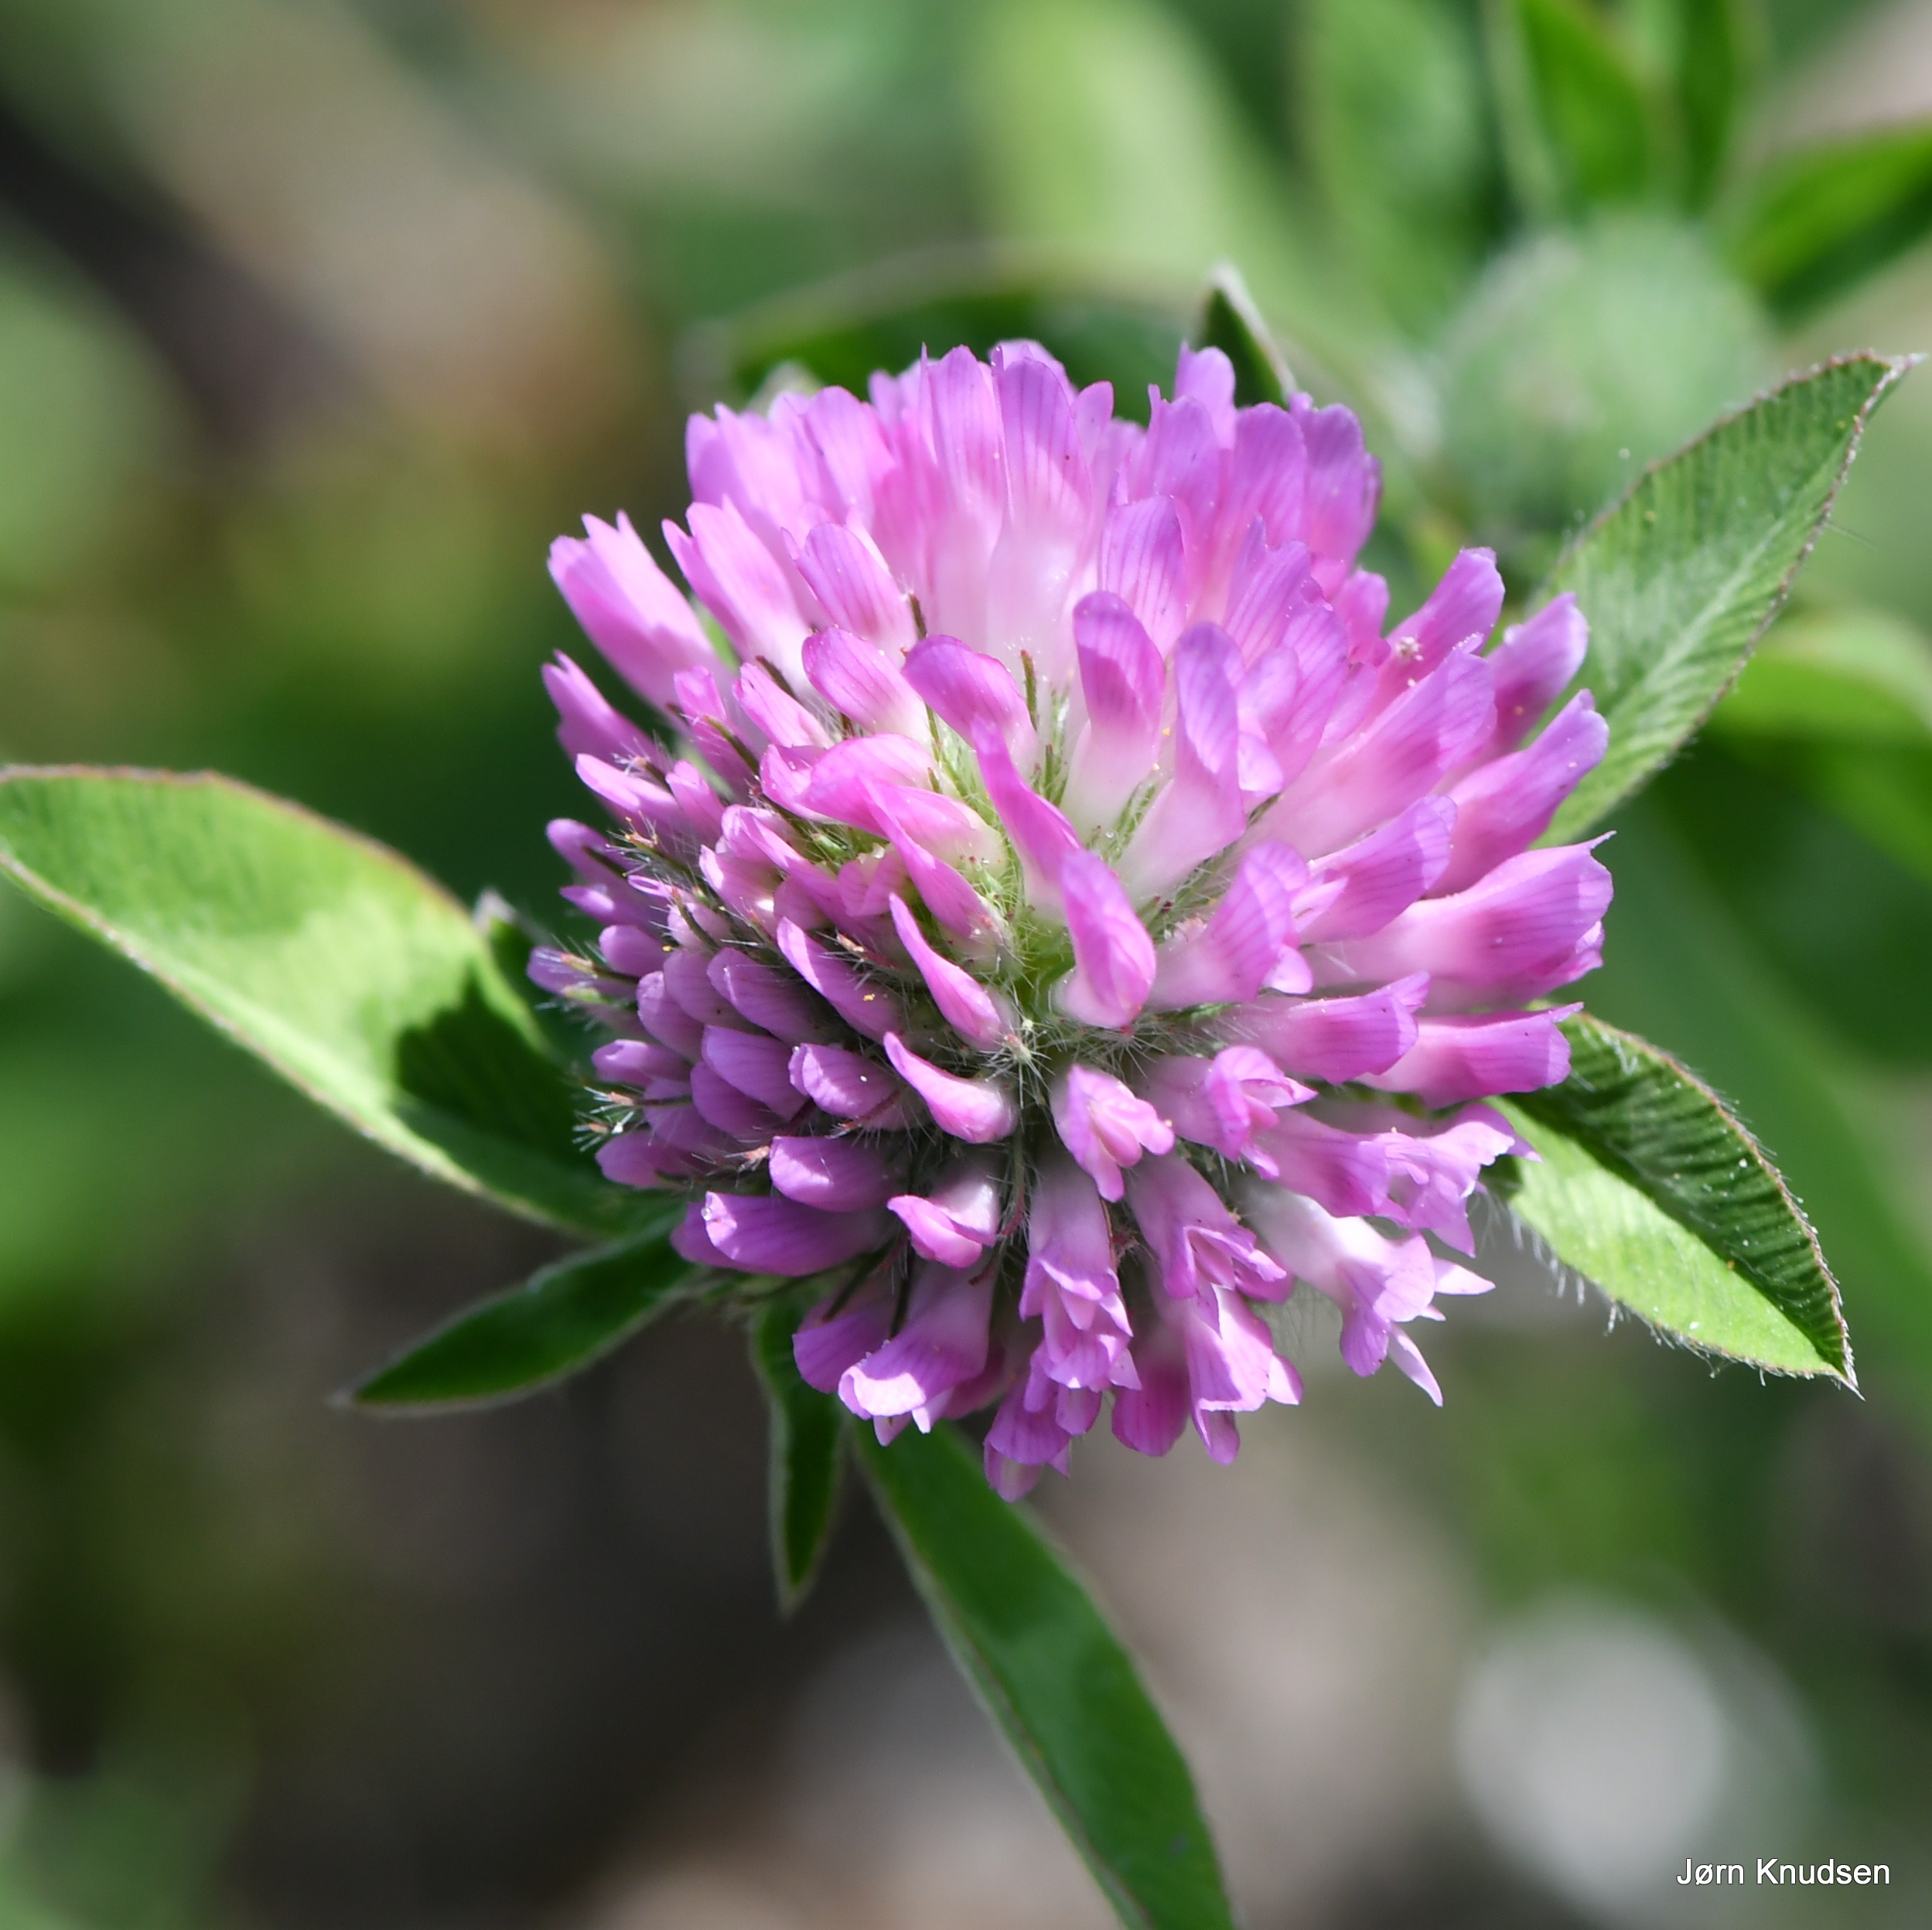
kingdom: Plantae
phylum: Tracheophyta
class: Magnoliopsida
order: Fabales
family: Fabaceae
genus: Trifolium
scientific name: Trifolium pratense
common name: Rød-kløver
